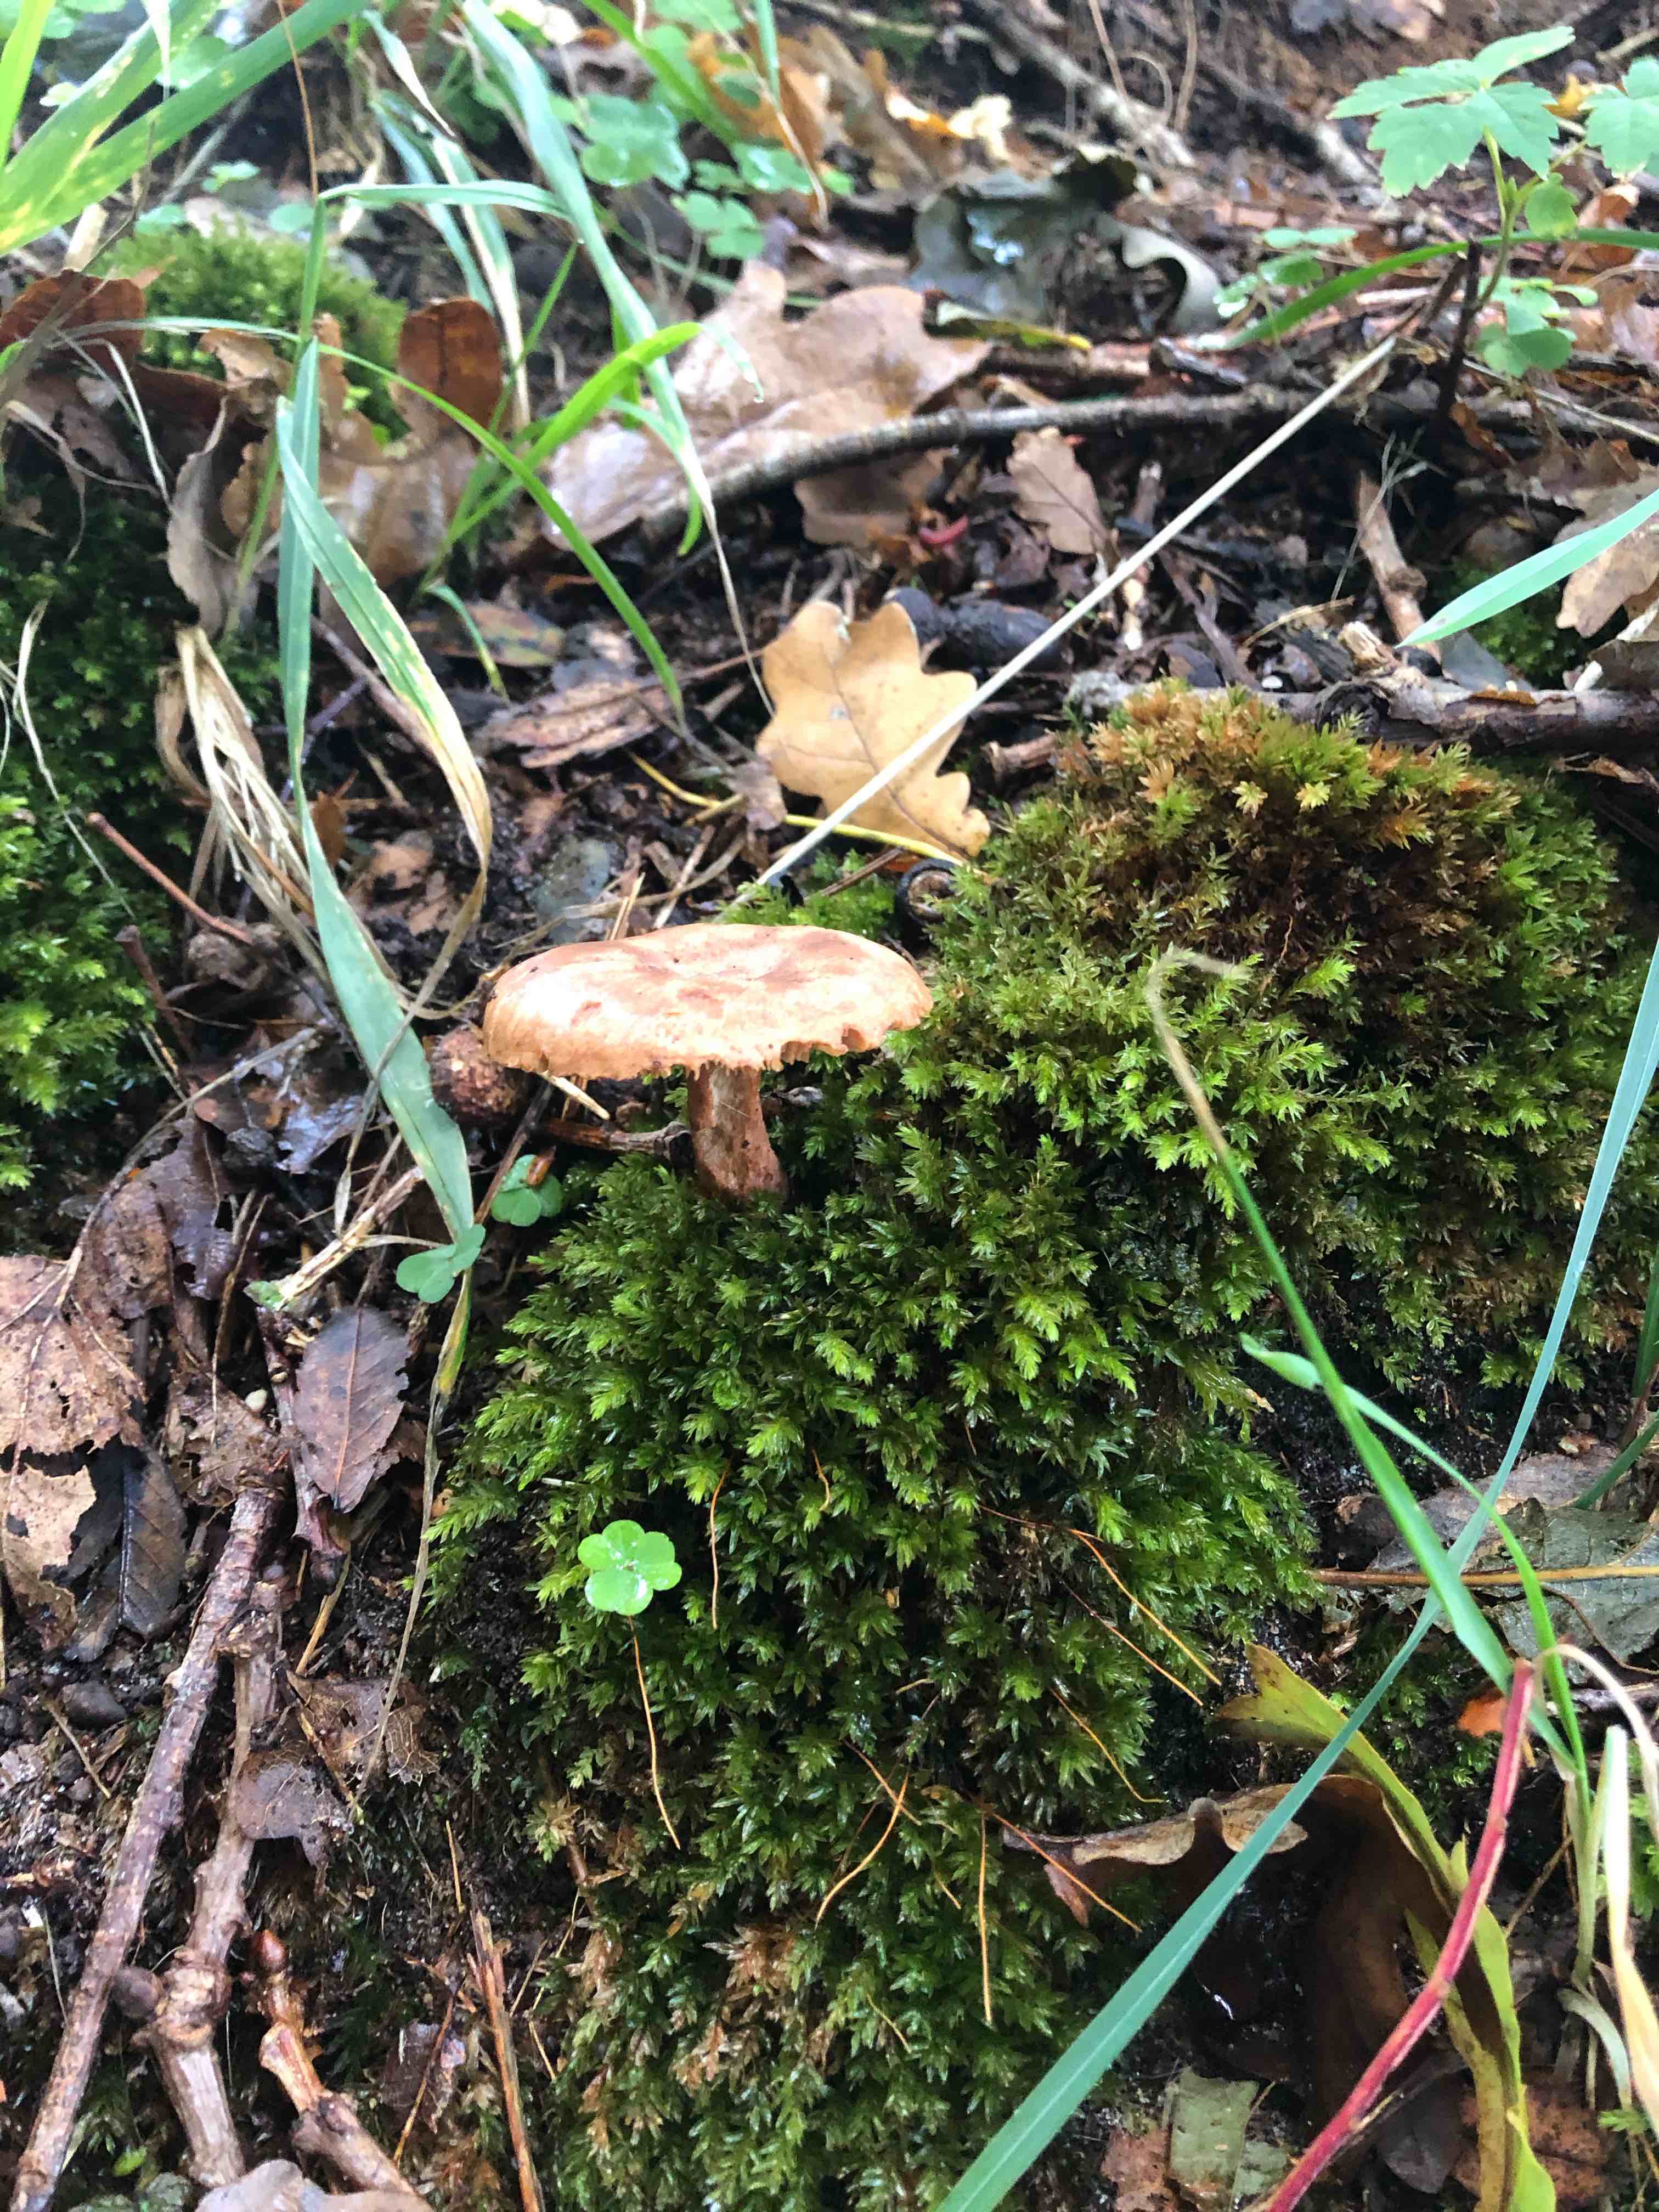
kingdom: Fungi
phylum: Basidiomycota
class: Agaricomycetes
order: Agaricales
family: Amanitaceae
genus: Amanita
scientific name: Amanita rubescens
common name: rødmende fluesvamp
